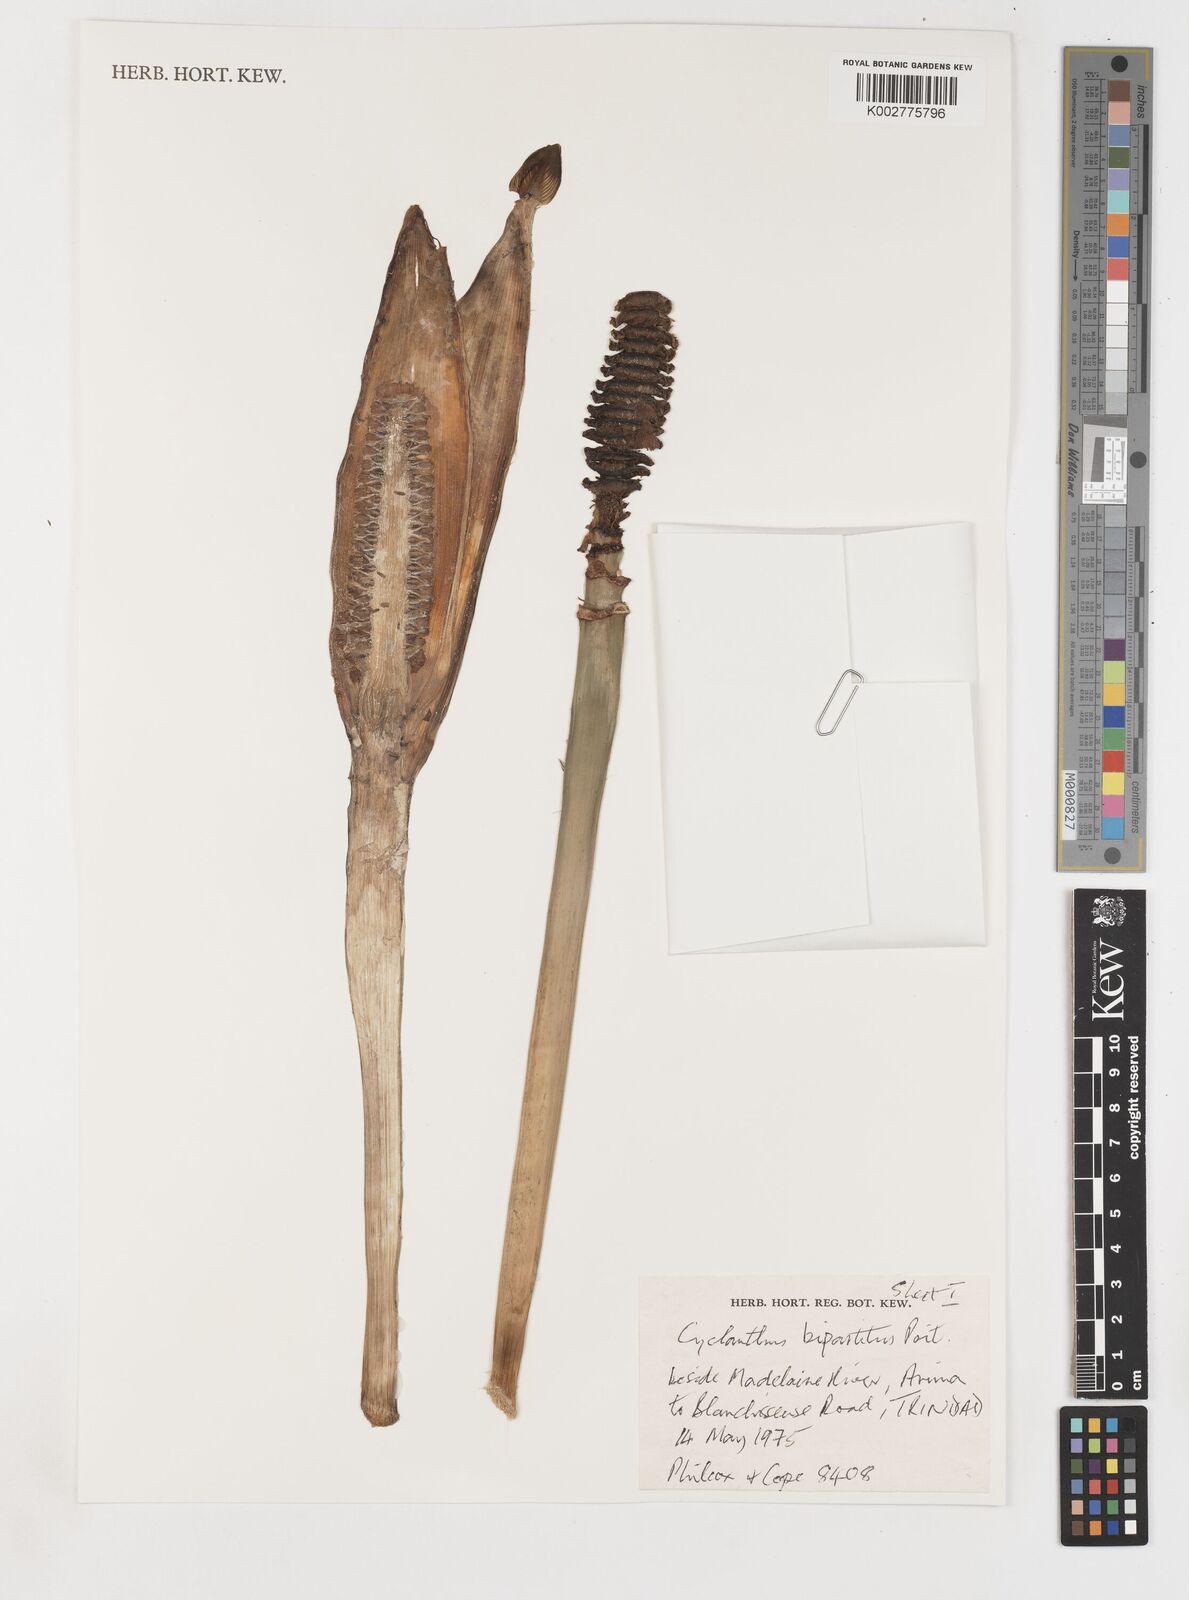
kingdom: Plantae
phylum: Tracheophyta
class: Liliopsida
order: Pandanales
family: Cyclanthaceae
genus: Cyclanthus
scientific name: Cyclanthus bipartitus
